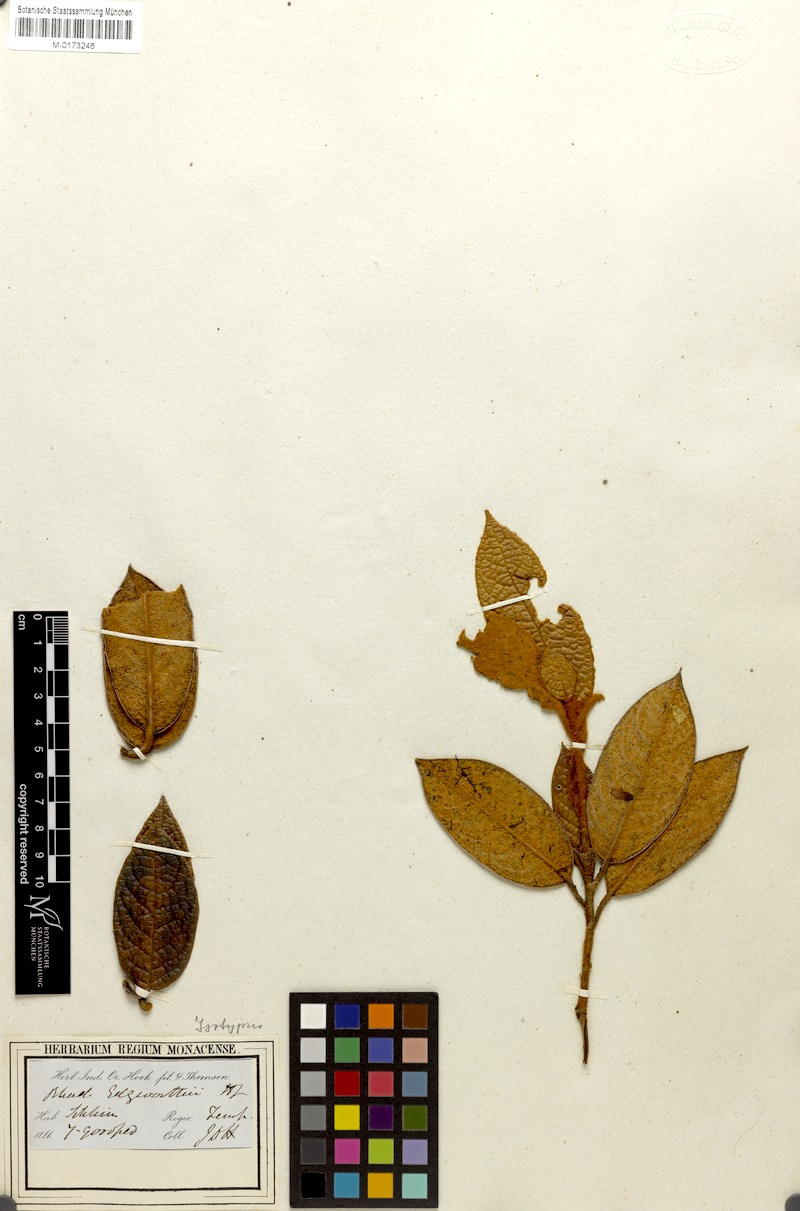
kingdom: Plantae
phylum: Tracheophyta
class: Magnoliopsida
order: Ericales
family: Ericaceae
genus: Rhododendron
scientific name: Rhododendron edgeworthii
